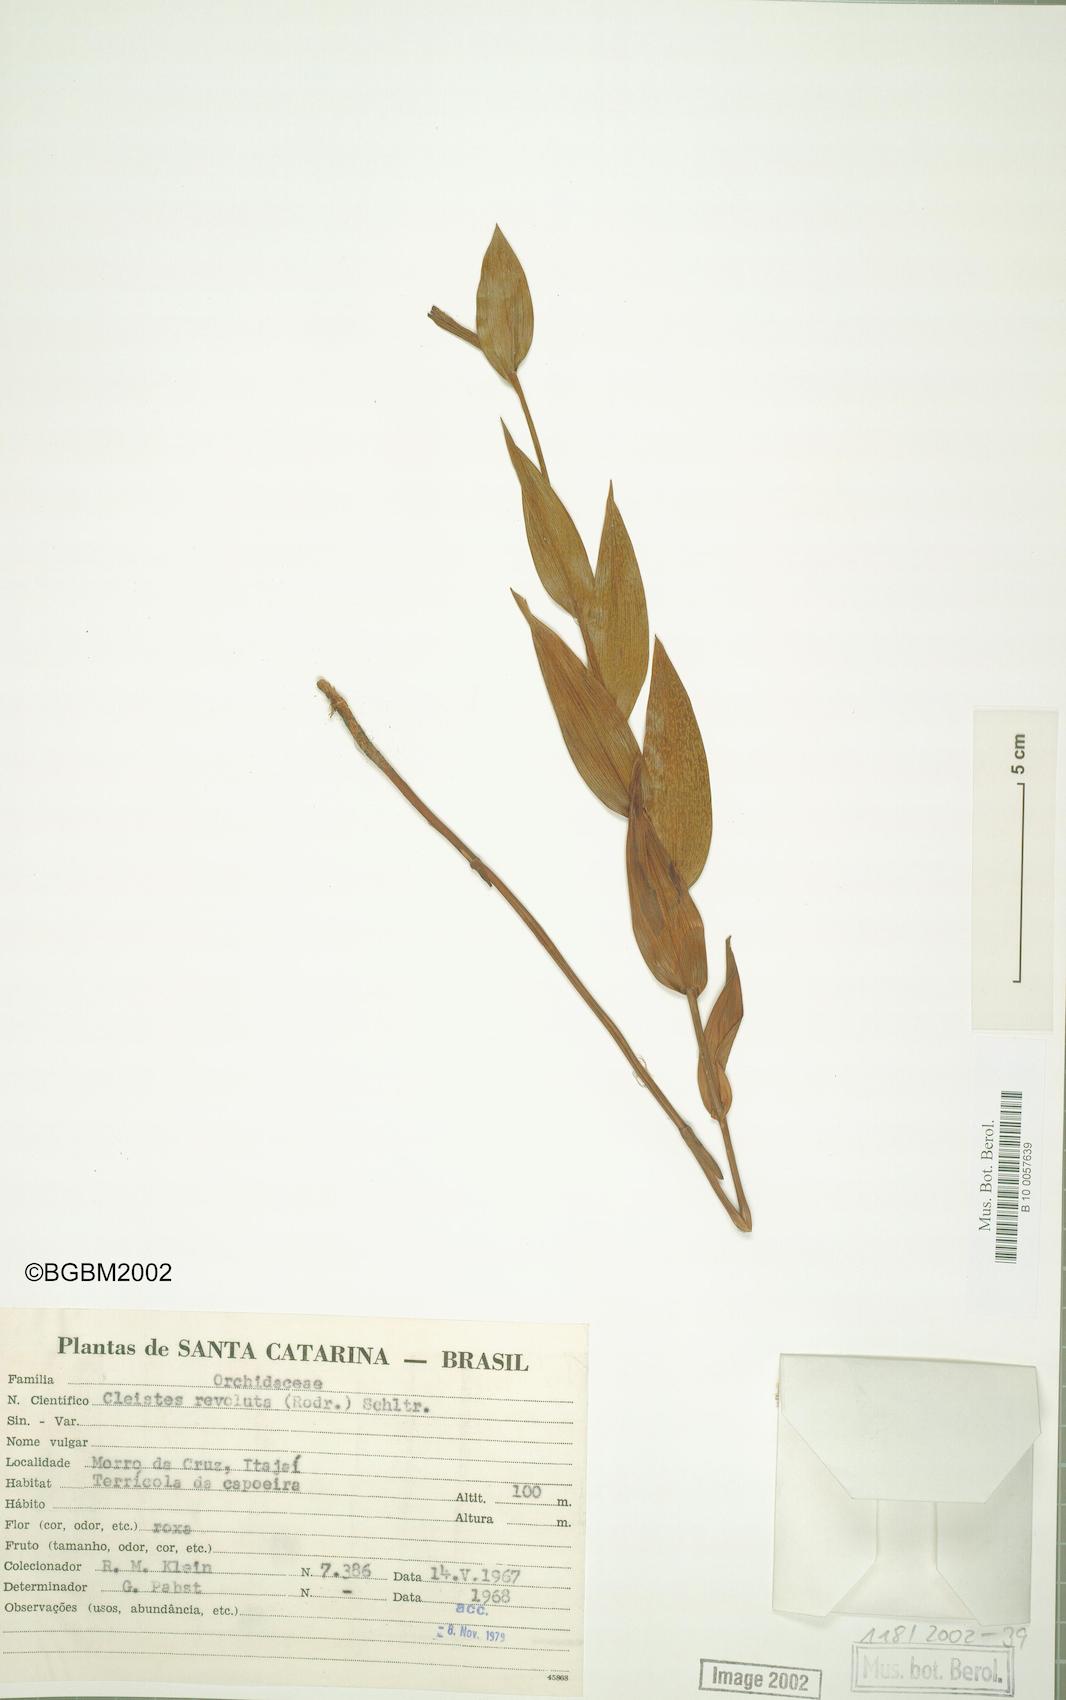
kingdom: Plantae
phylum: Tracheophyta
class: Liliopsida
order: Asparagales
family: Orchidaceae
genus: Cleistes
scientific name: Cleistes libonii
